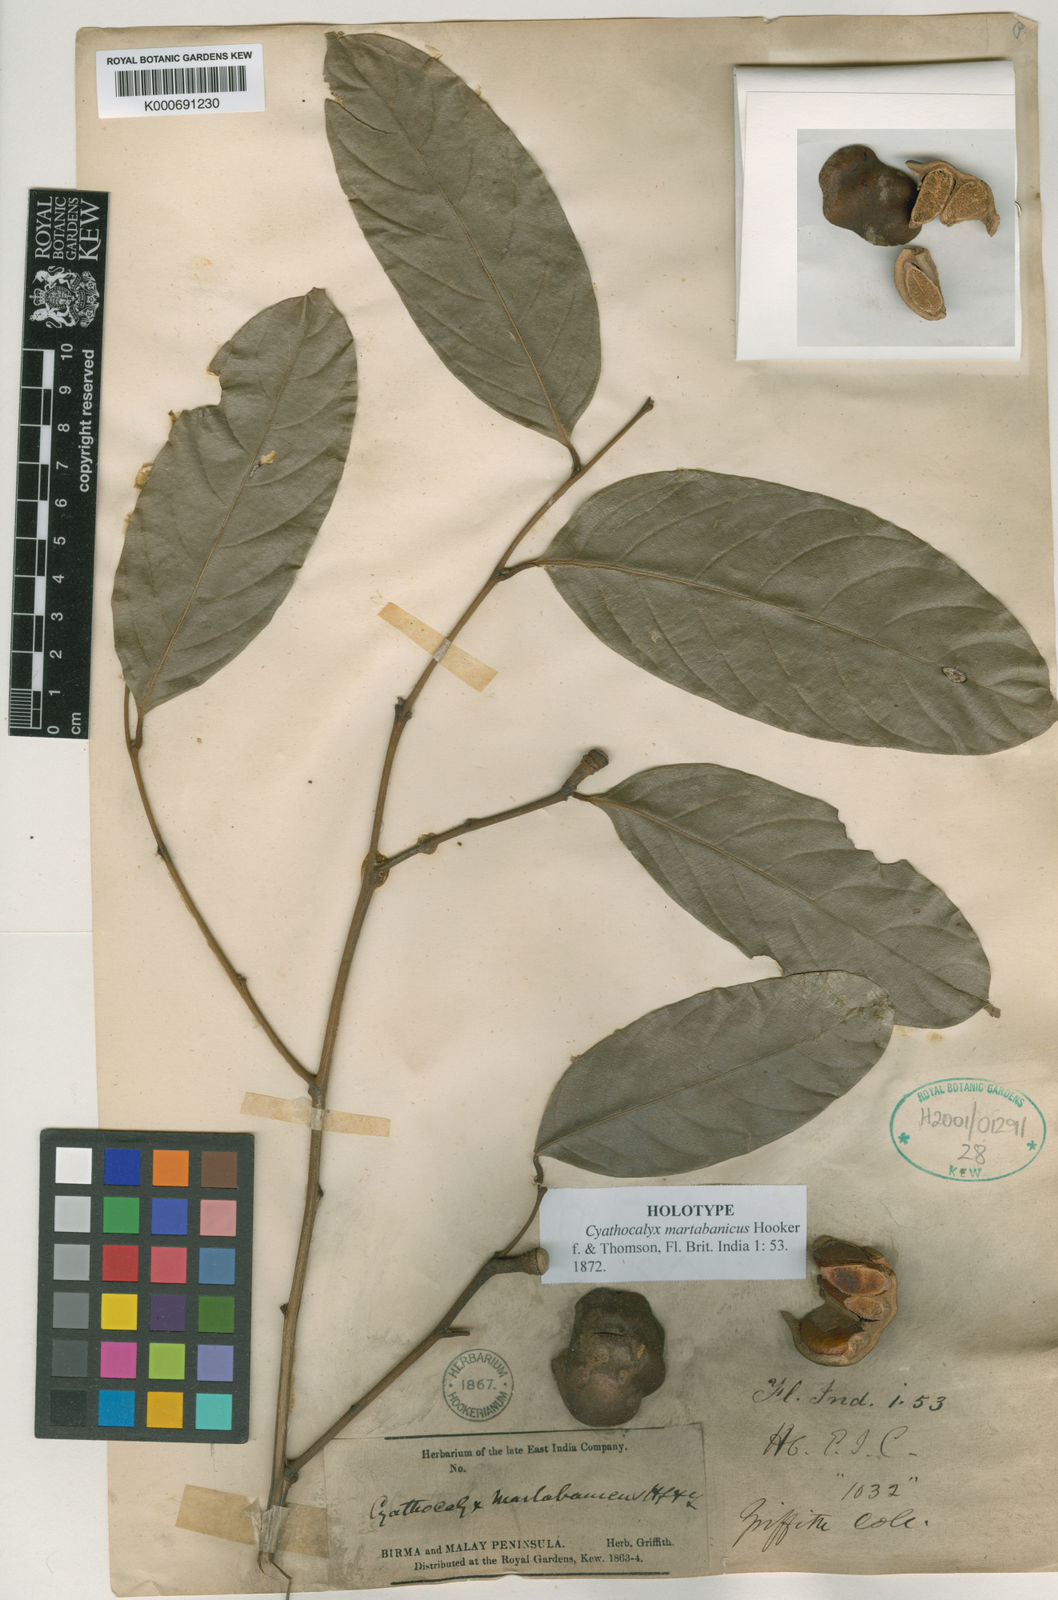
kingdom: Plantae
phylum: Tracheophyta
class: Magnoliopsida
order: Magnoliales
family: Annonaceae
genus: Cyathocalyx
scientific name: Cyathocalyx martabanicus
